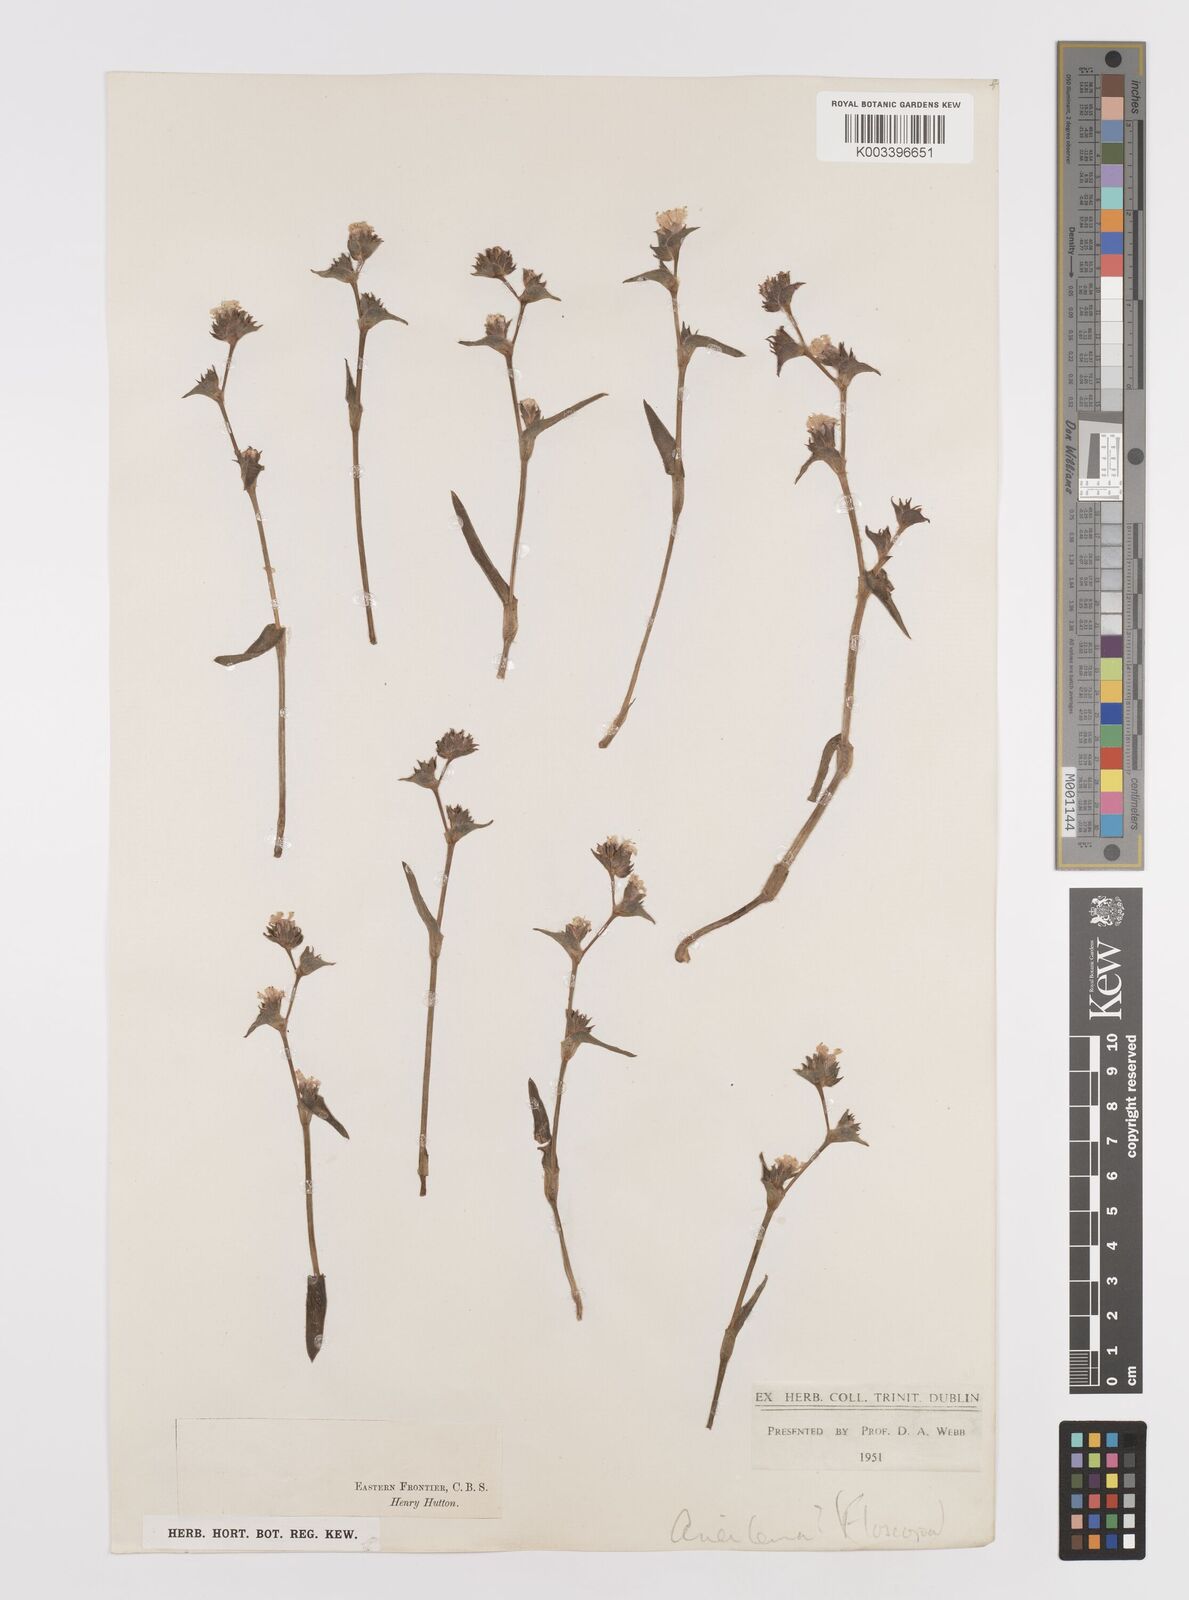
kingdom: Plantae
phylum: Tracheophyta
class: Liliopsida
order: Commelinales
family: Commelinaceae
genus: Cyanotis
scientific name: Cyanotis speciosa
